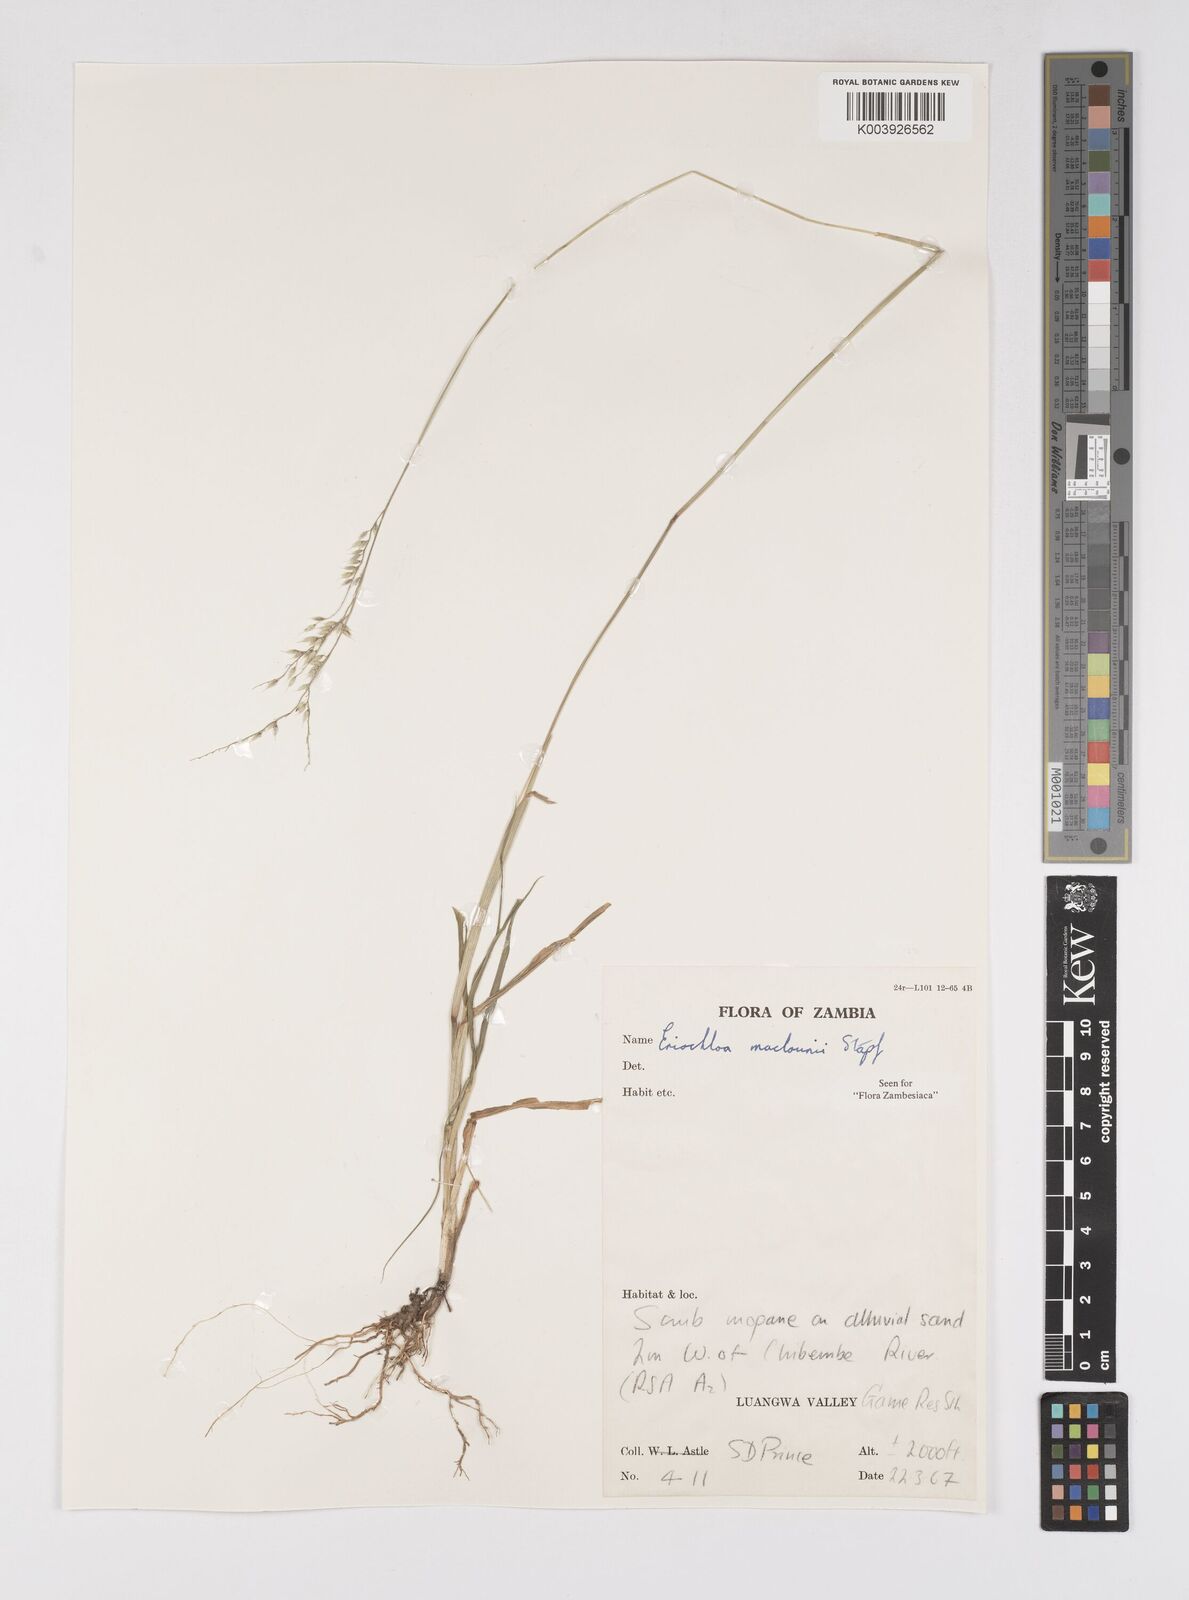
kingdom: Plantae
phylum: Tracheophyta
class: Liliopsida
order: Poales
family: Poaceae
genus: Eriochloa
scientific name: Eriochloa macclounii
